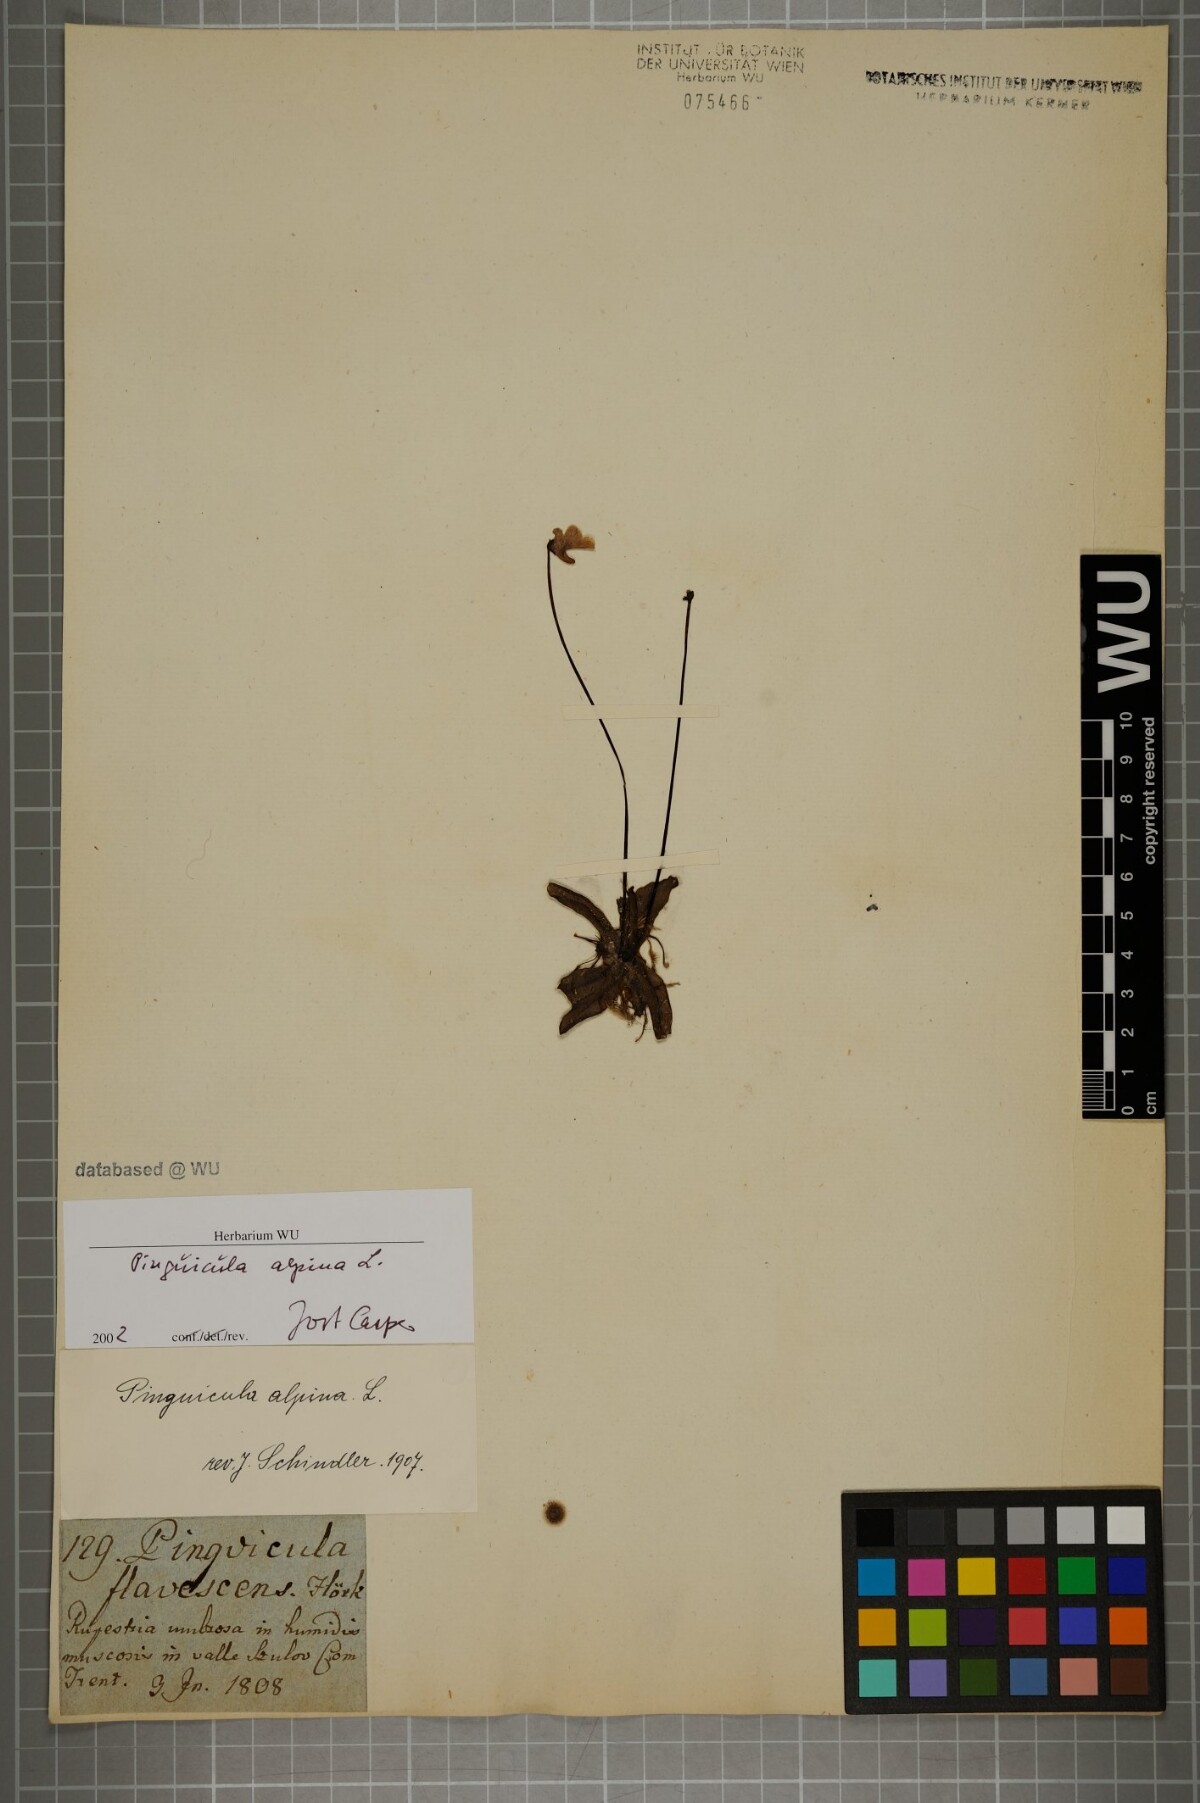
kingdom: Plantae
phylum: Tracheophyta
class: Magnoliopsida
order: Lamiales
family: Lentibulariaceae
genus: Pinguicula
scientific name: Pinguicula alpina
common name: Alpine butterwort
